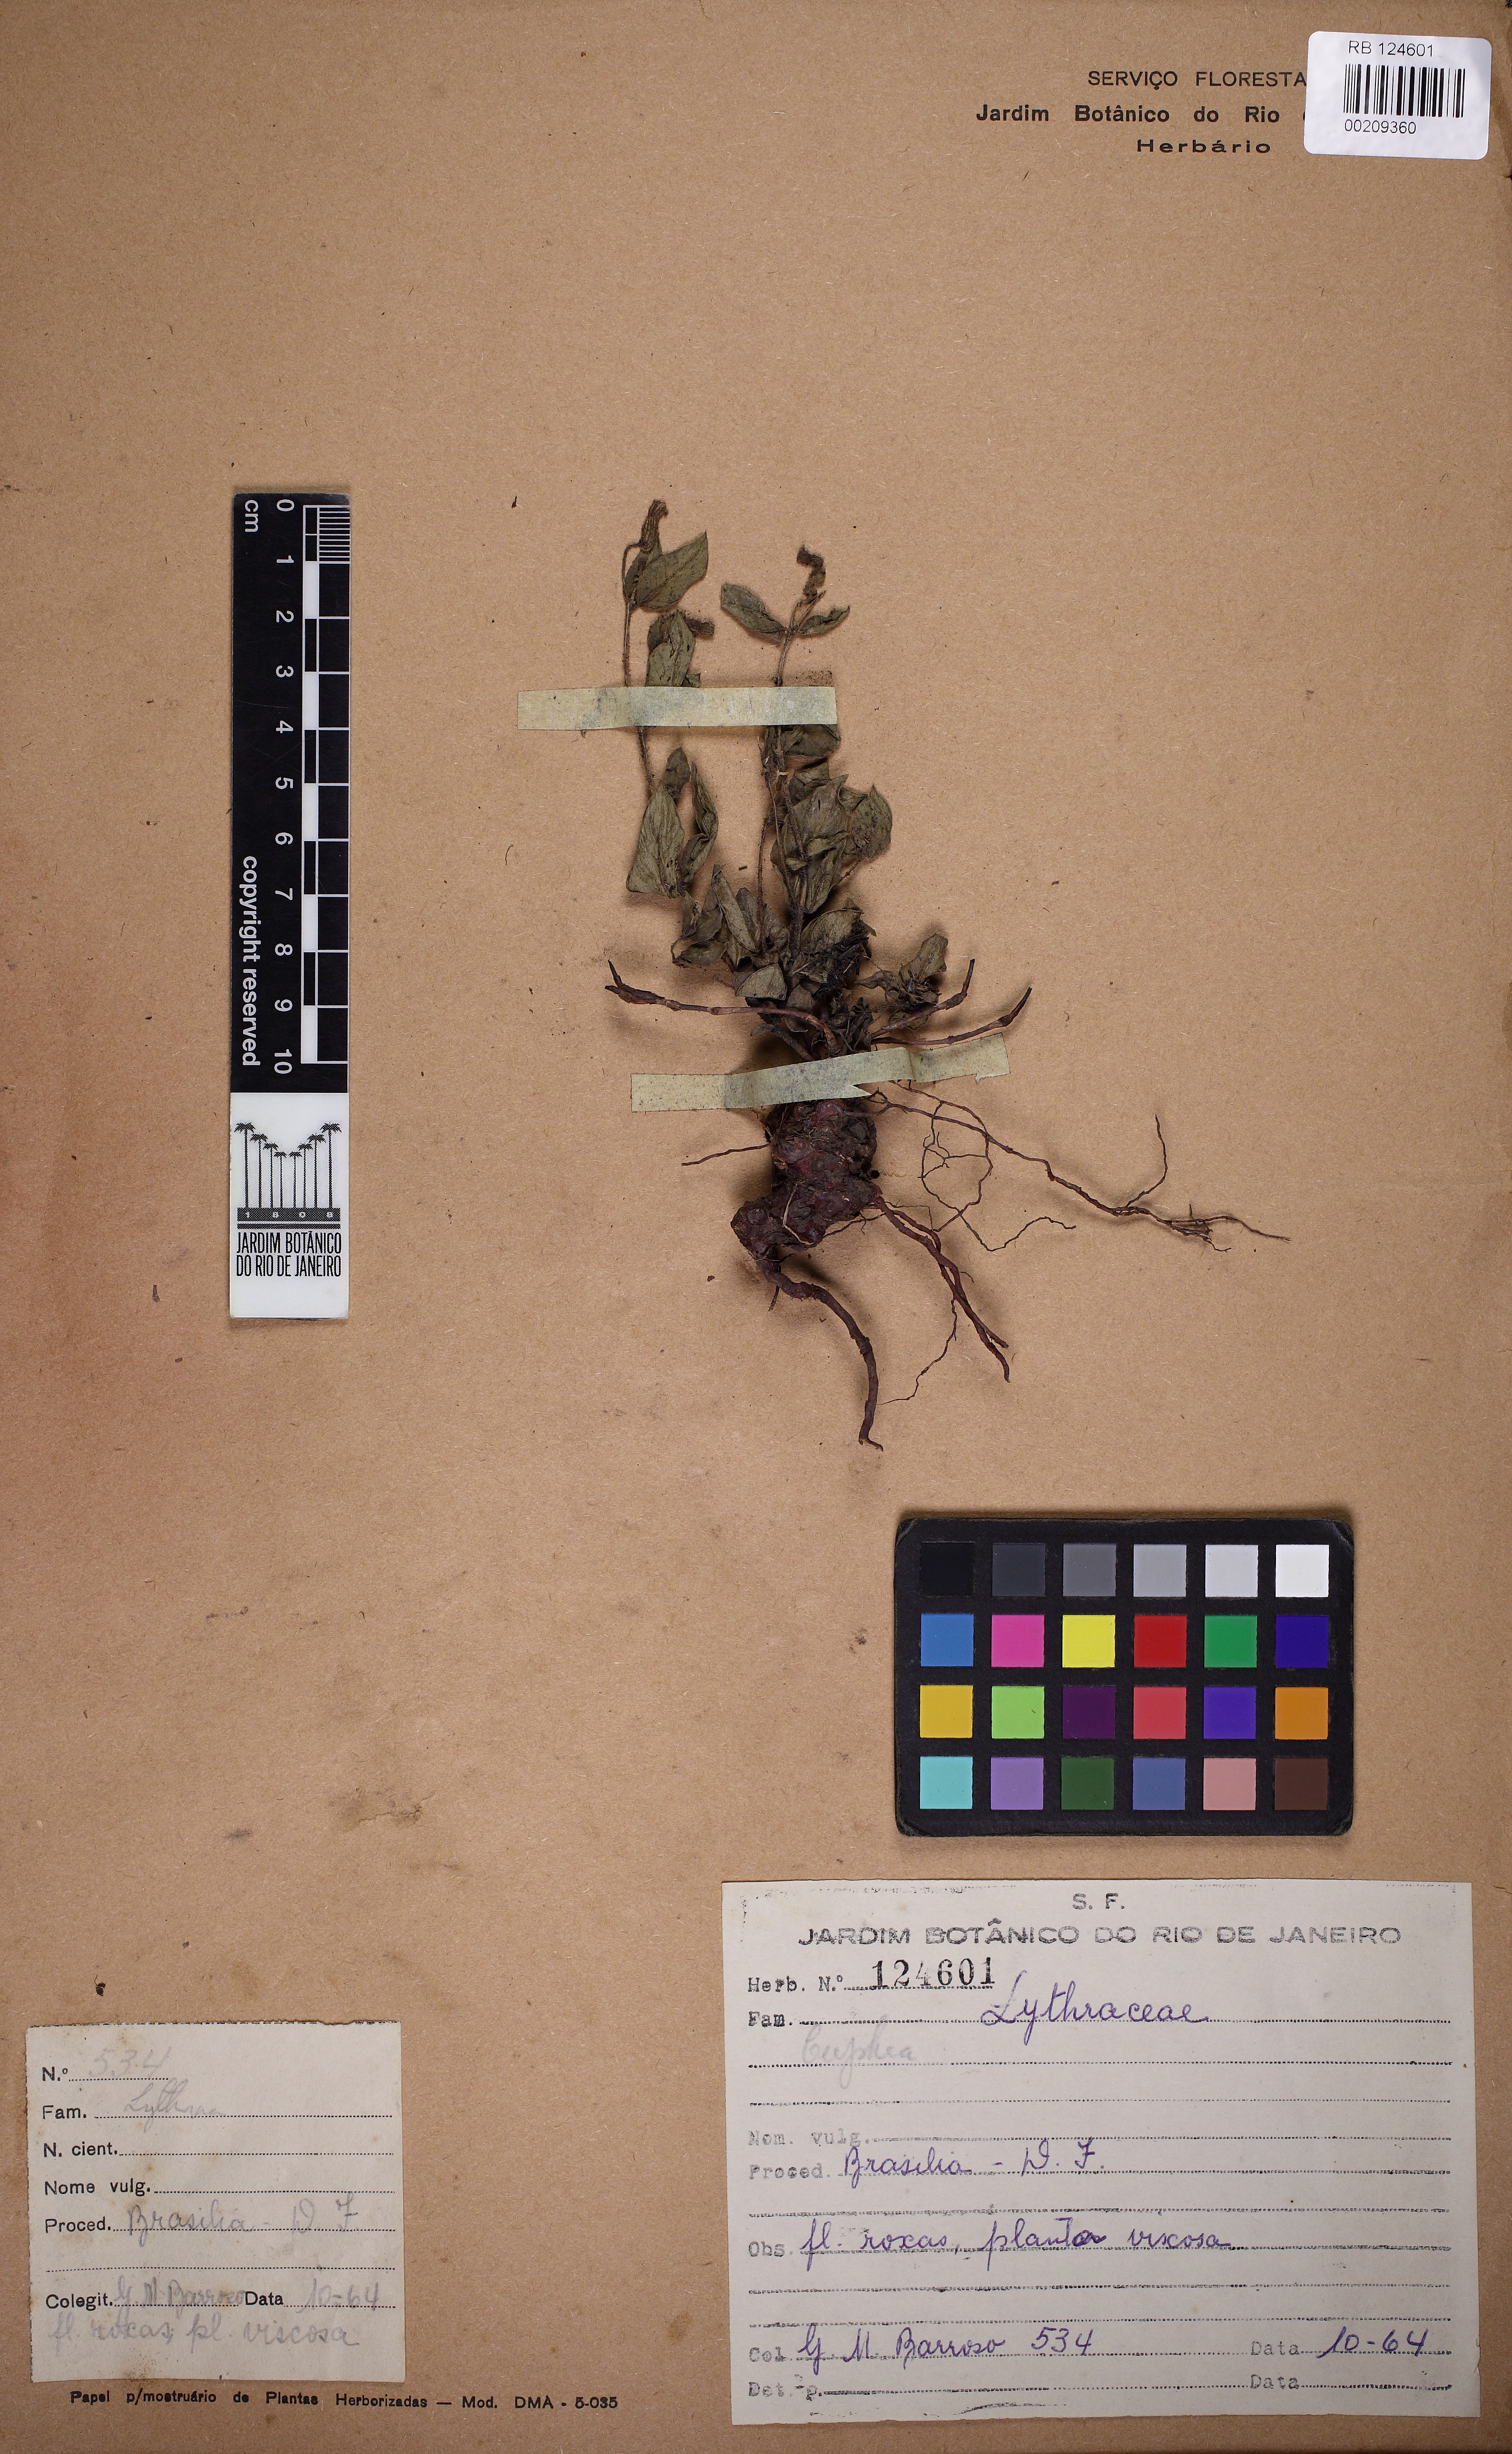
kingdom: Plantae
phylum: Tracheophyta
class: Magnoliopsida
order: Myrtales
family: Lythraceae
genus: Cuphea
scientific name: Cuphea
